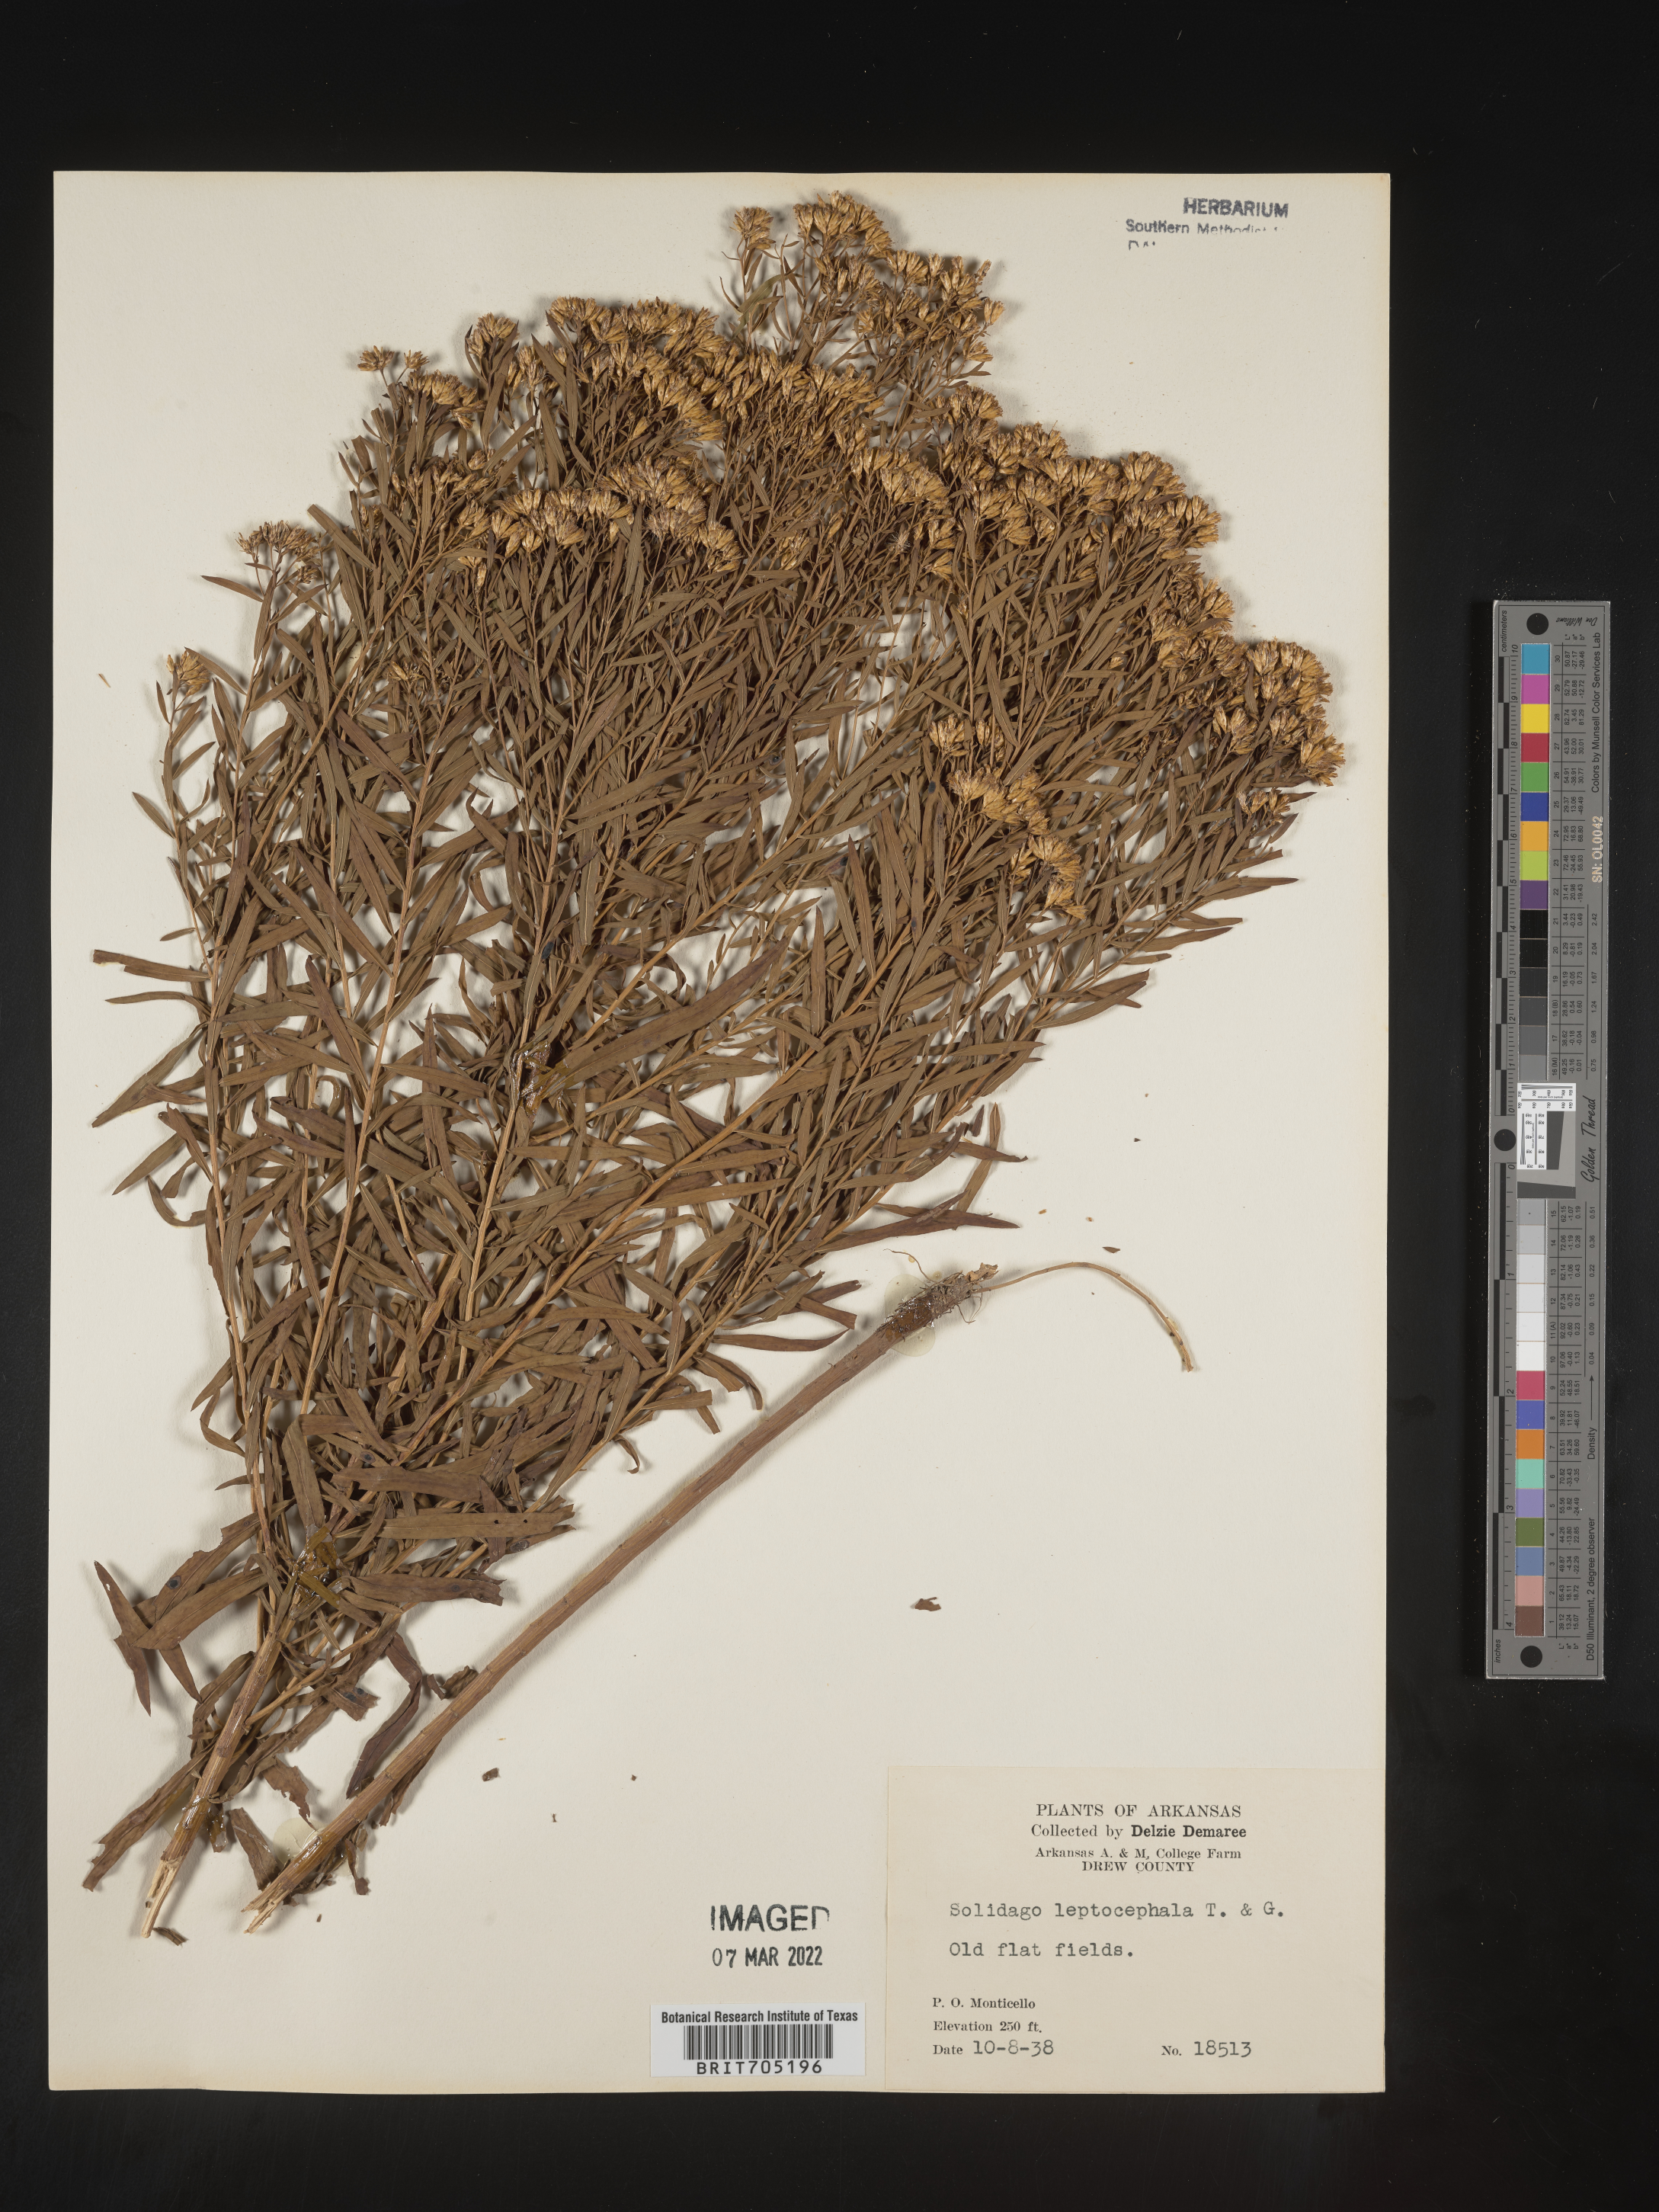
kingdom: Plantae
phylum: Tracheophyta
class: Magnoliopsida
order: Asterales
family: Asteraceae
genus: Euthamia
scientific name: Euthamia leptocephala
